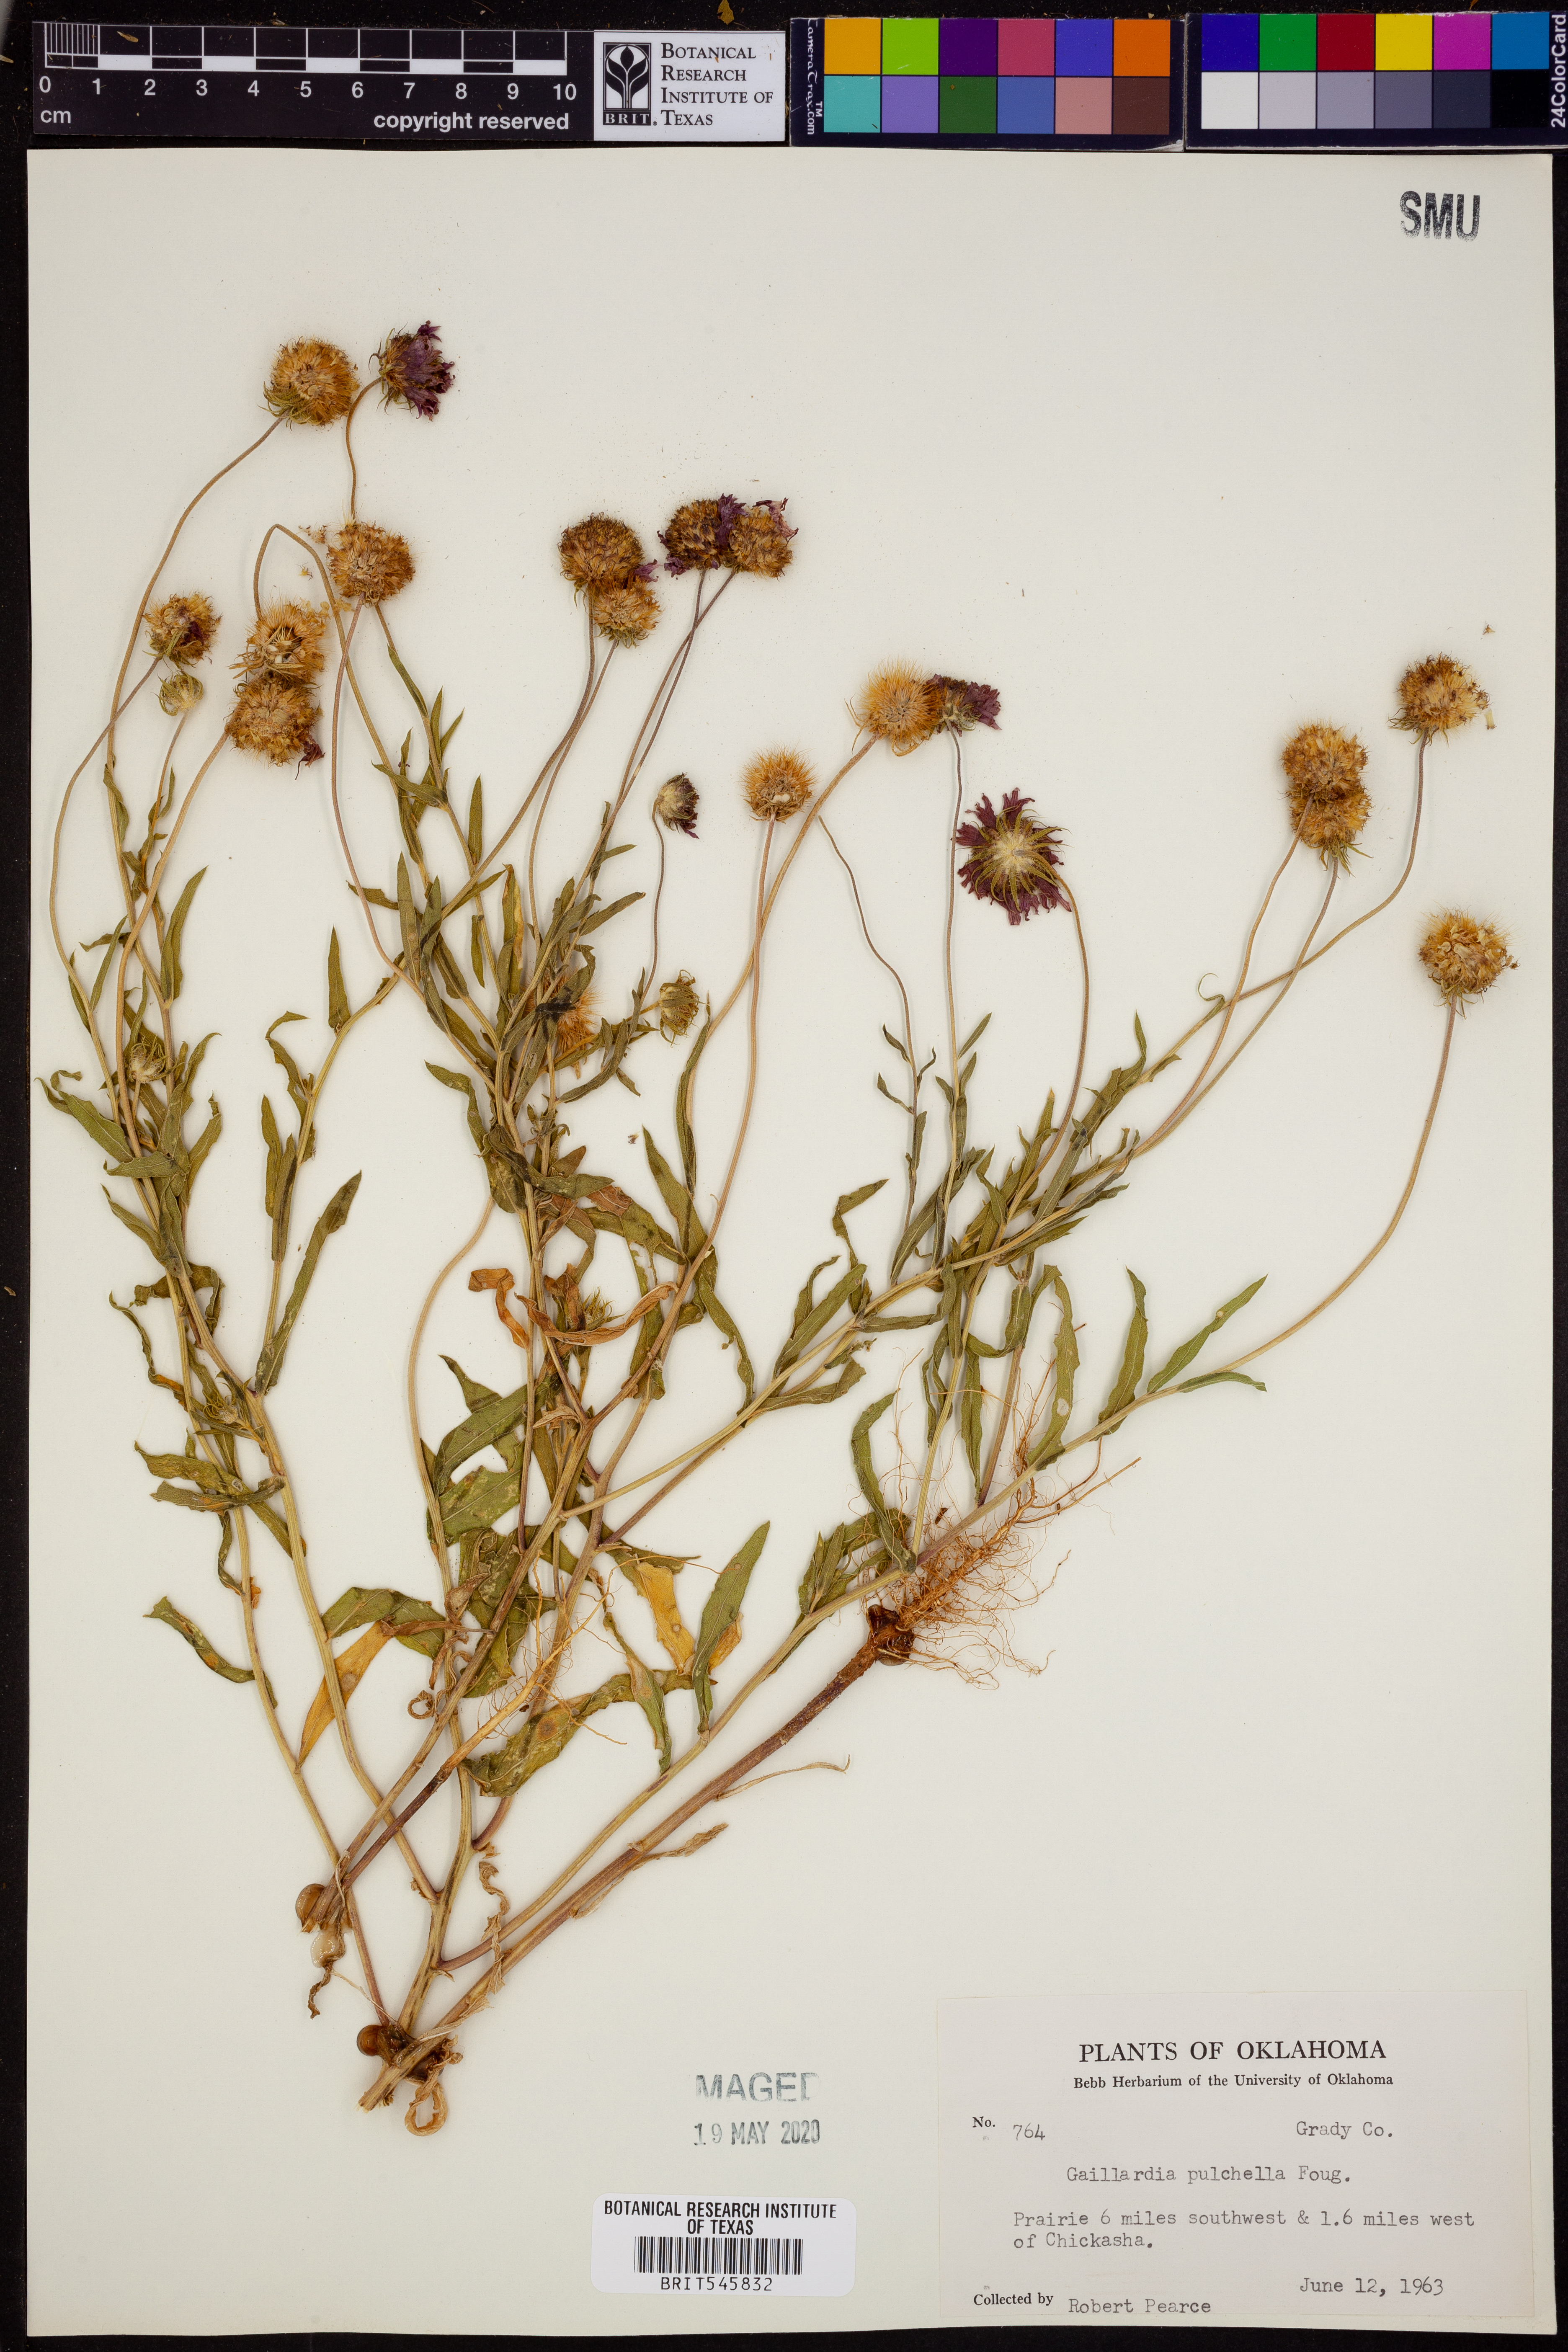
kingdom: Plantae
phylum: Tracheophyta
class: Magnoliopsida
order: Asterales
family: Asteraceae
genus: Gaillardia
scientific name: Gaillardia pulchella
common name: Firewheel
